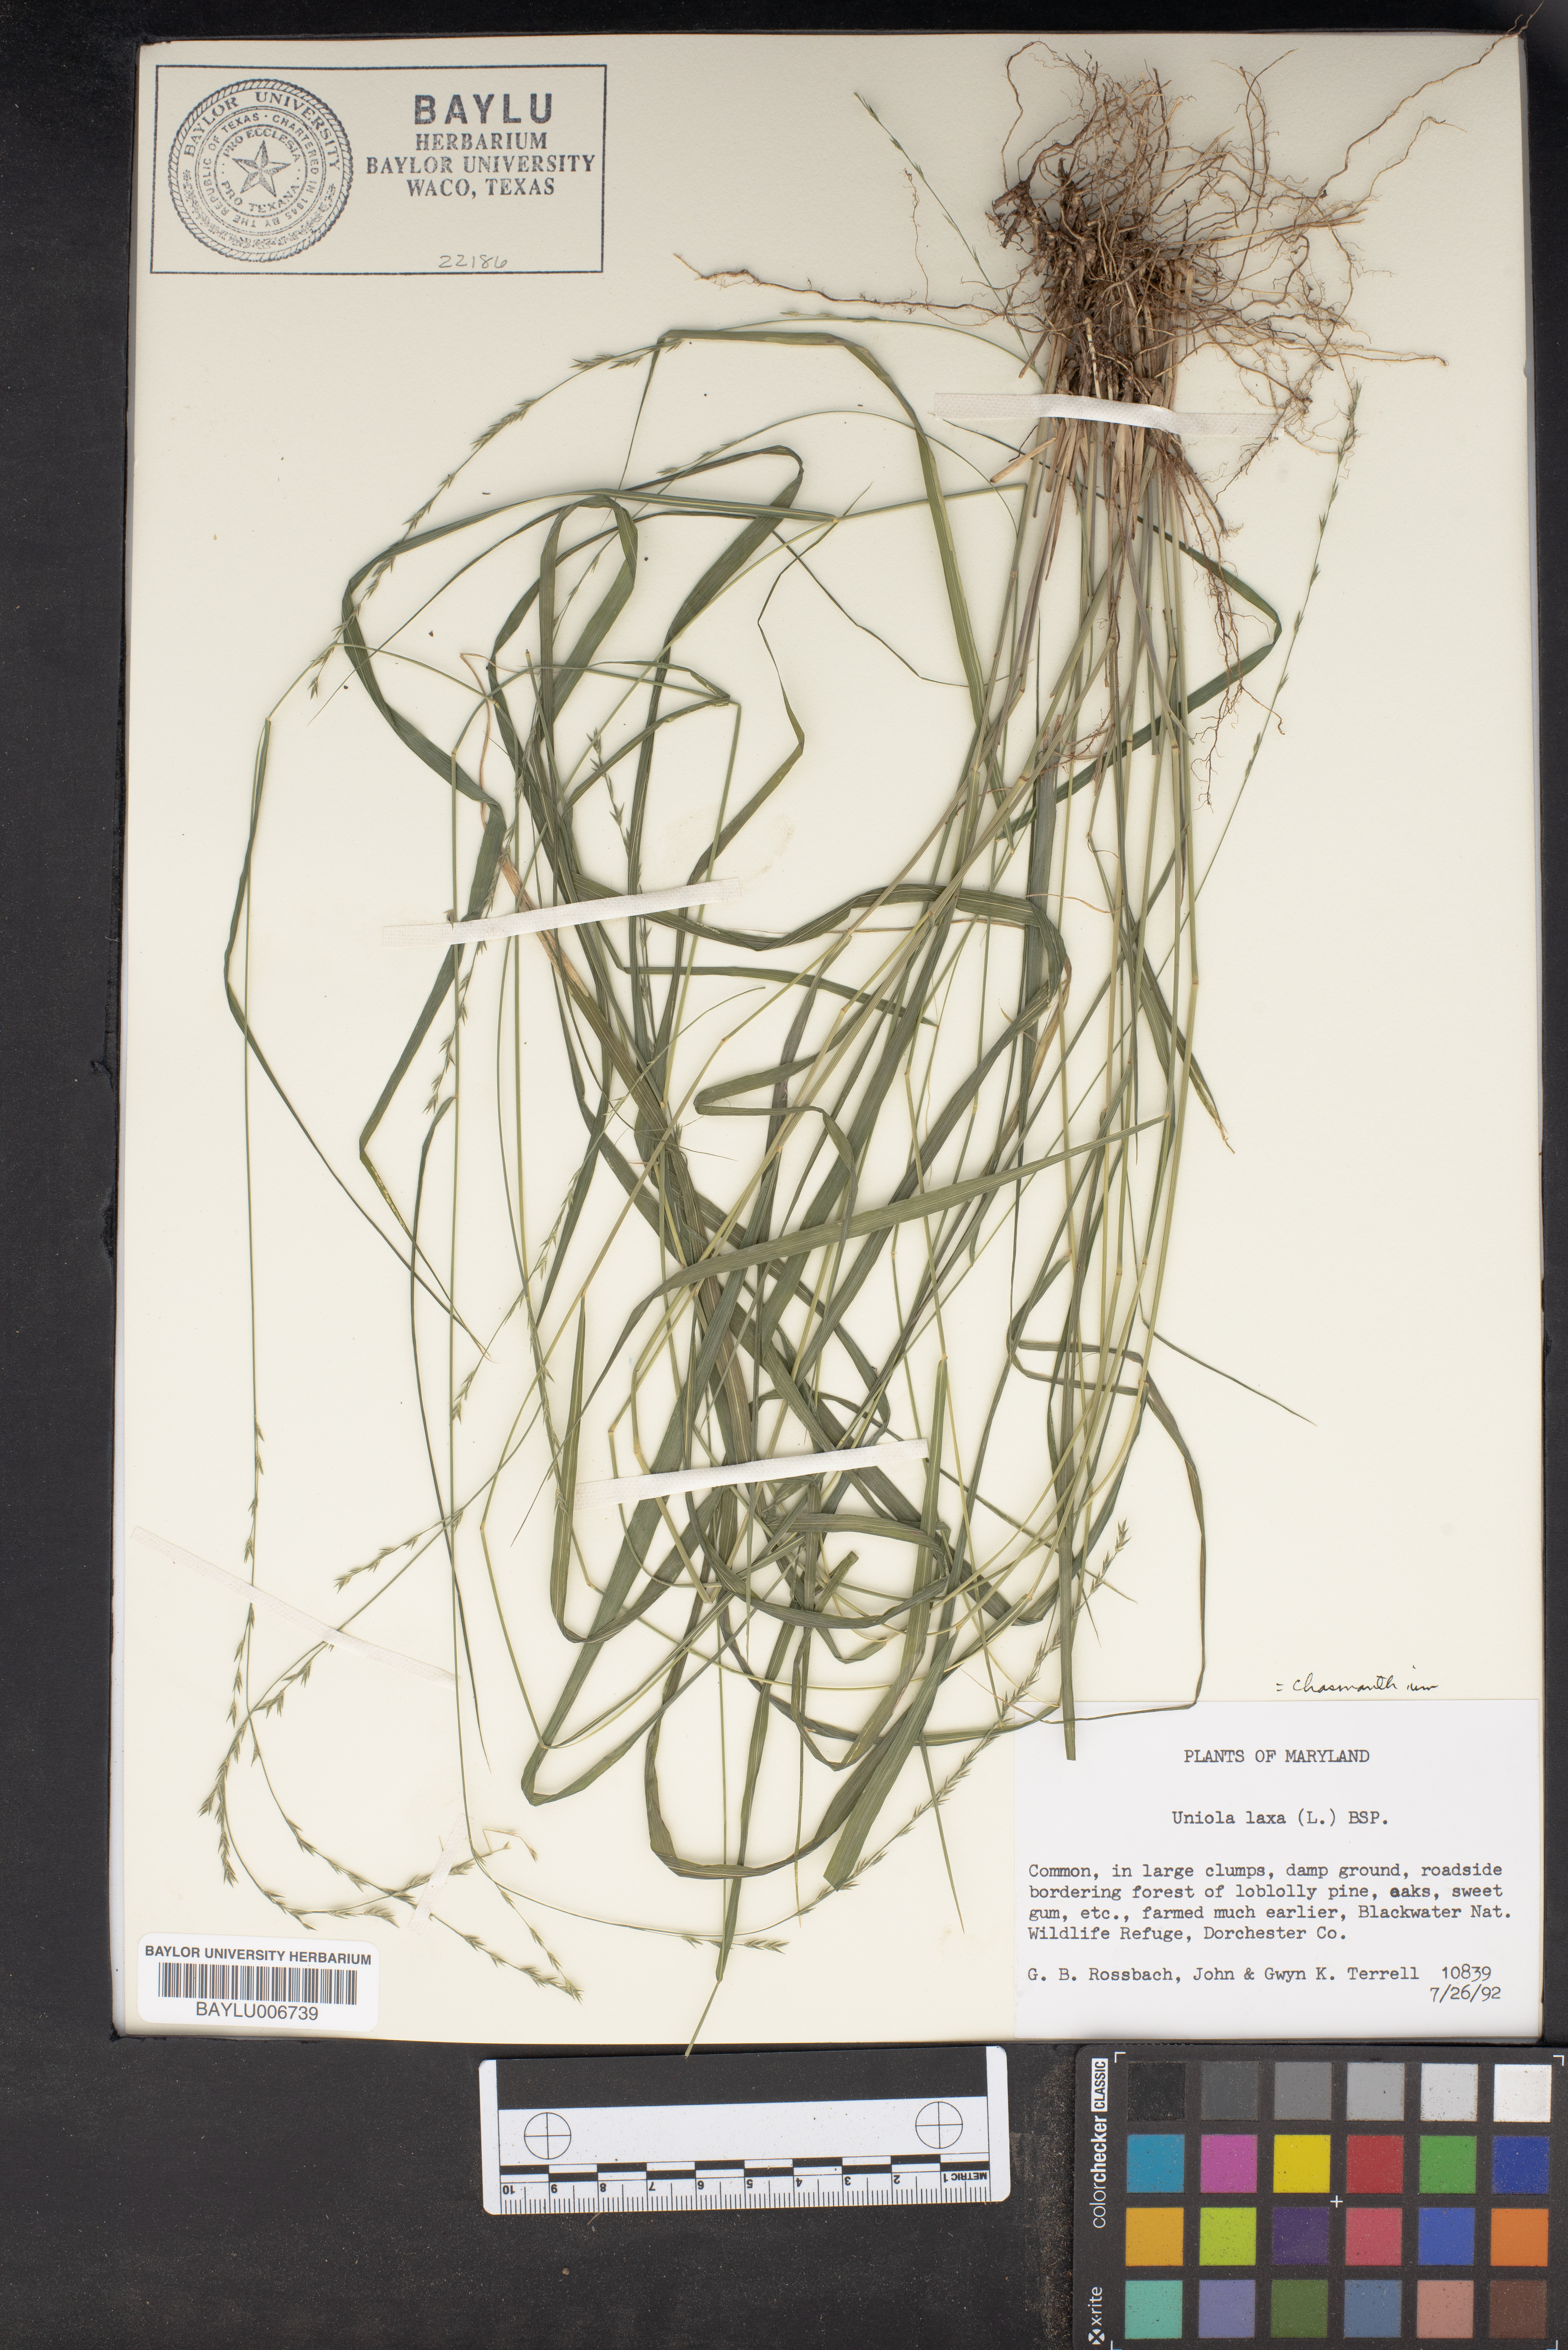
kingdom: Plantae
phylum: Tracheophyta
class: Liliopsida
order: Poales
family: Poaceae
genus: Chasmanthium
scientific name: Chasmanthium laxum
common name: Slender chasmanthium
